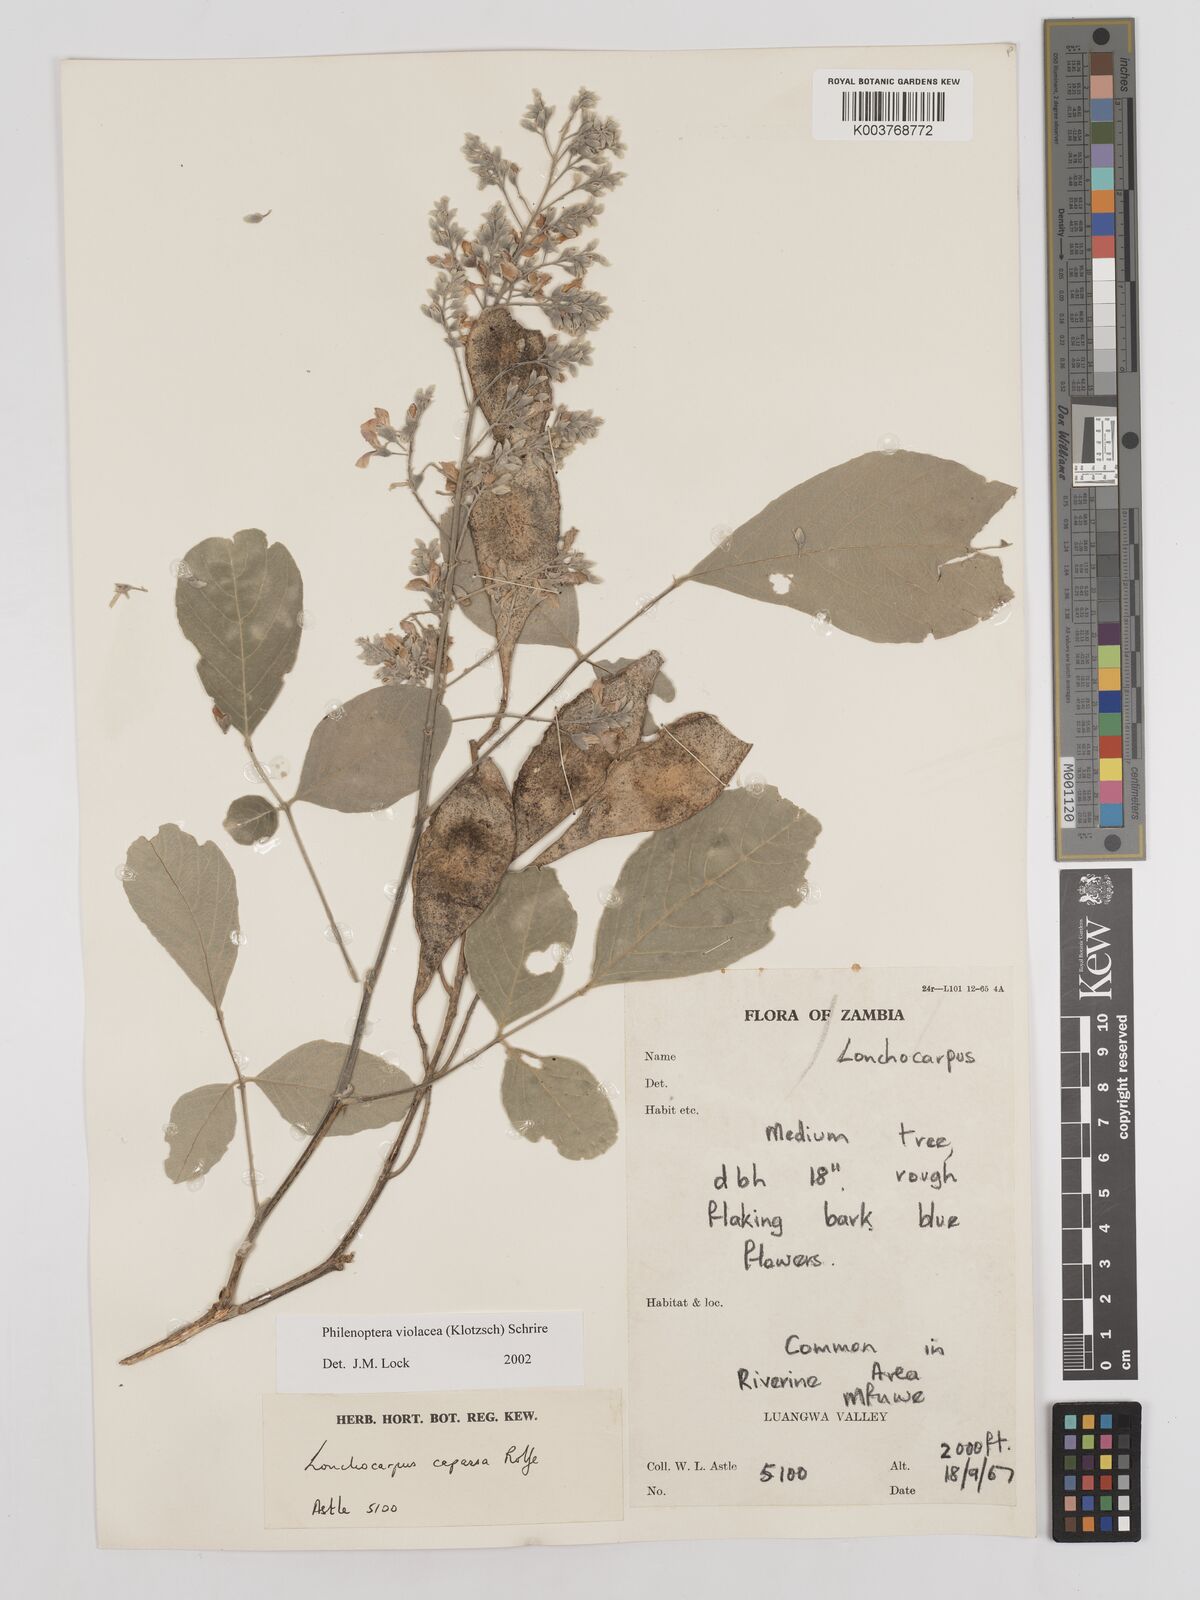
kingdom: Plantae
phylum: Tracheophyta
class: Magnoliopsida
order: Fabales
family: Fabaceae
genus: Philenoptera
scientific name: Philenoptera violacea
